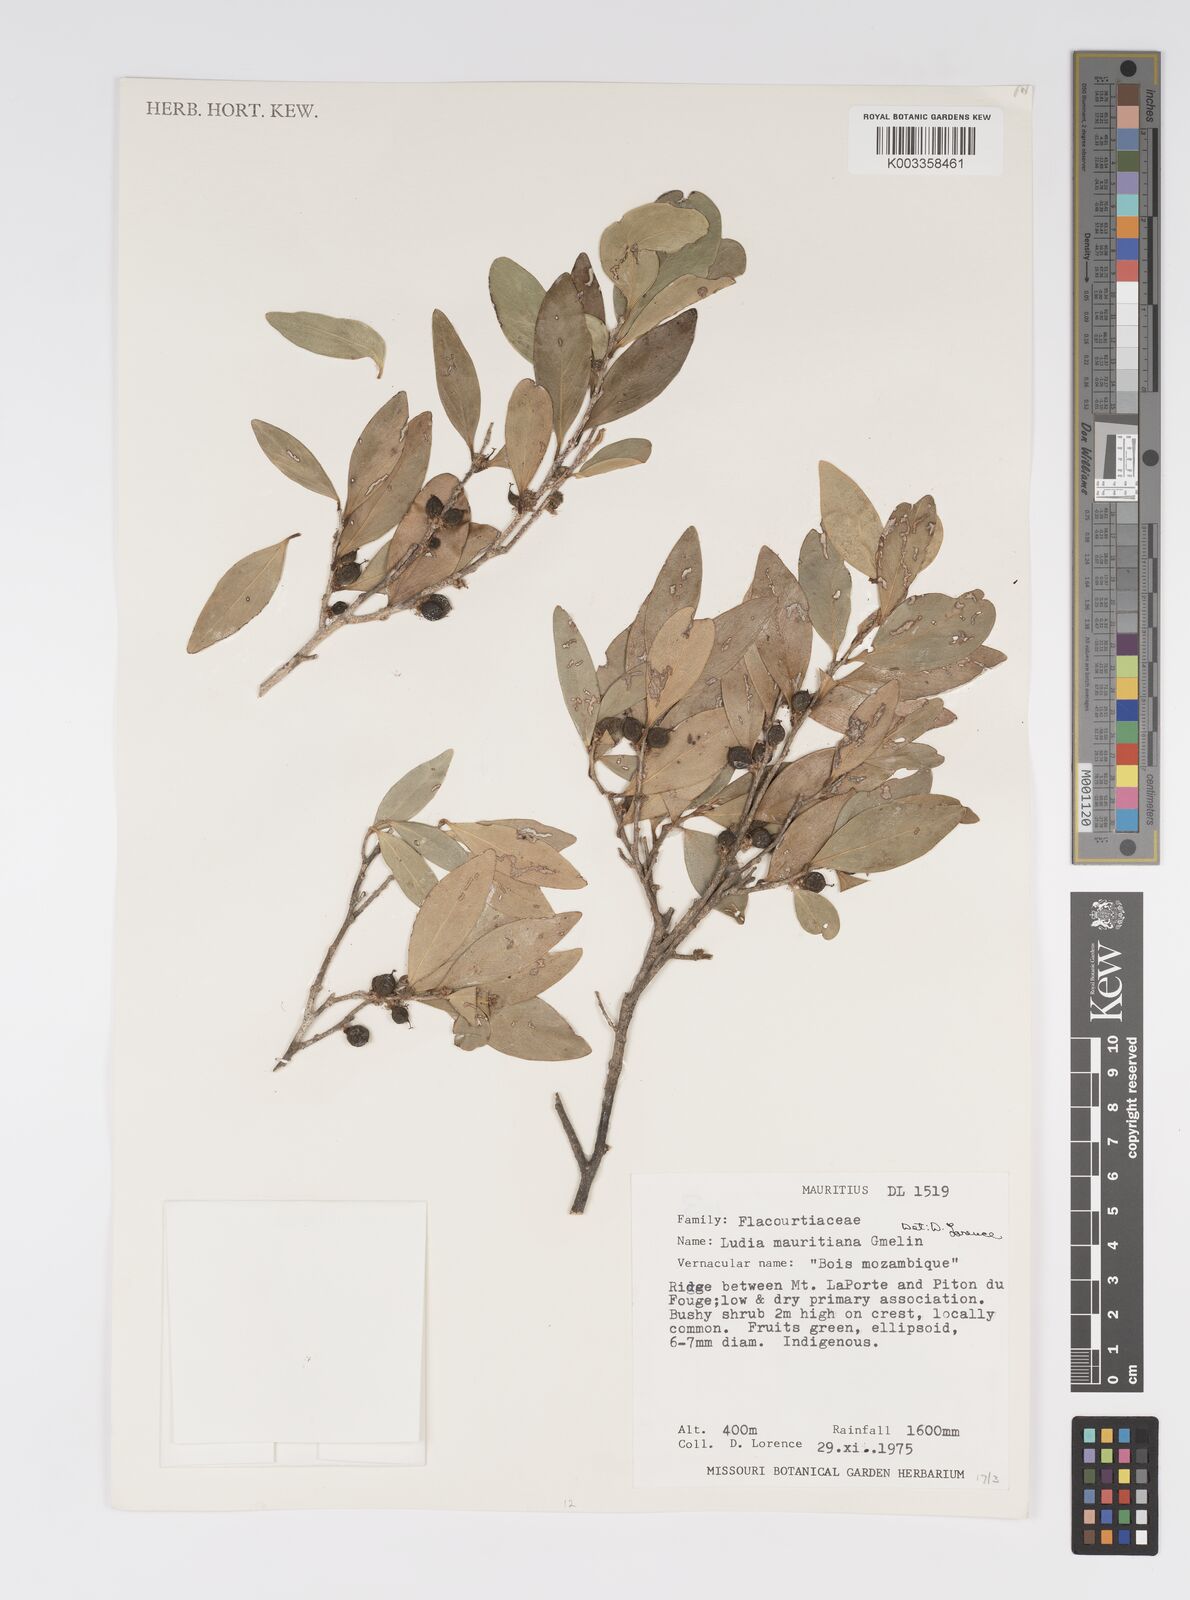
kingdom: Plantae
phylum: Tracheophyta
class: Magnoliopsida
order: Malpighiales
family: Salicaceae
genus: Ludia
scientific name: Ludia mauritiana
